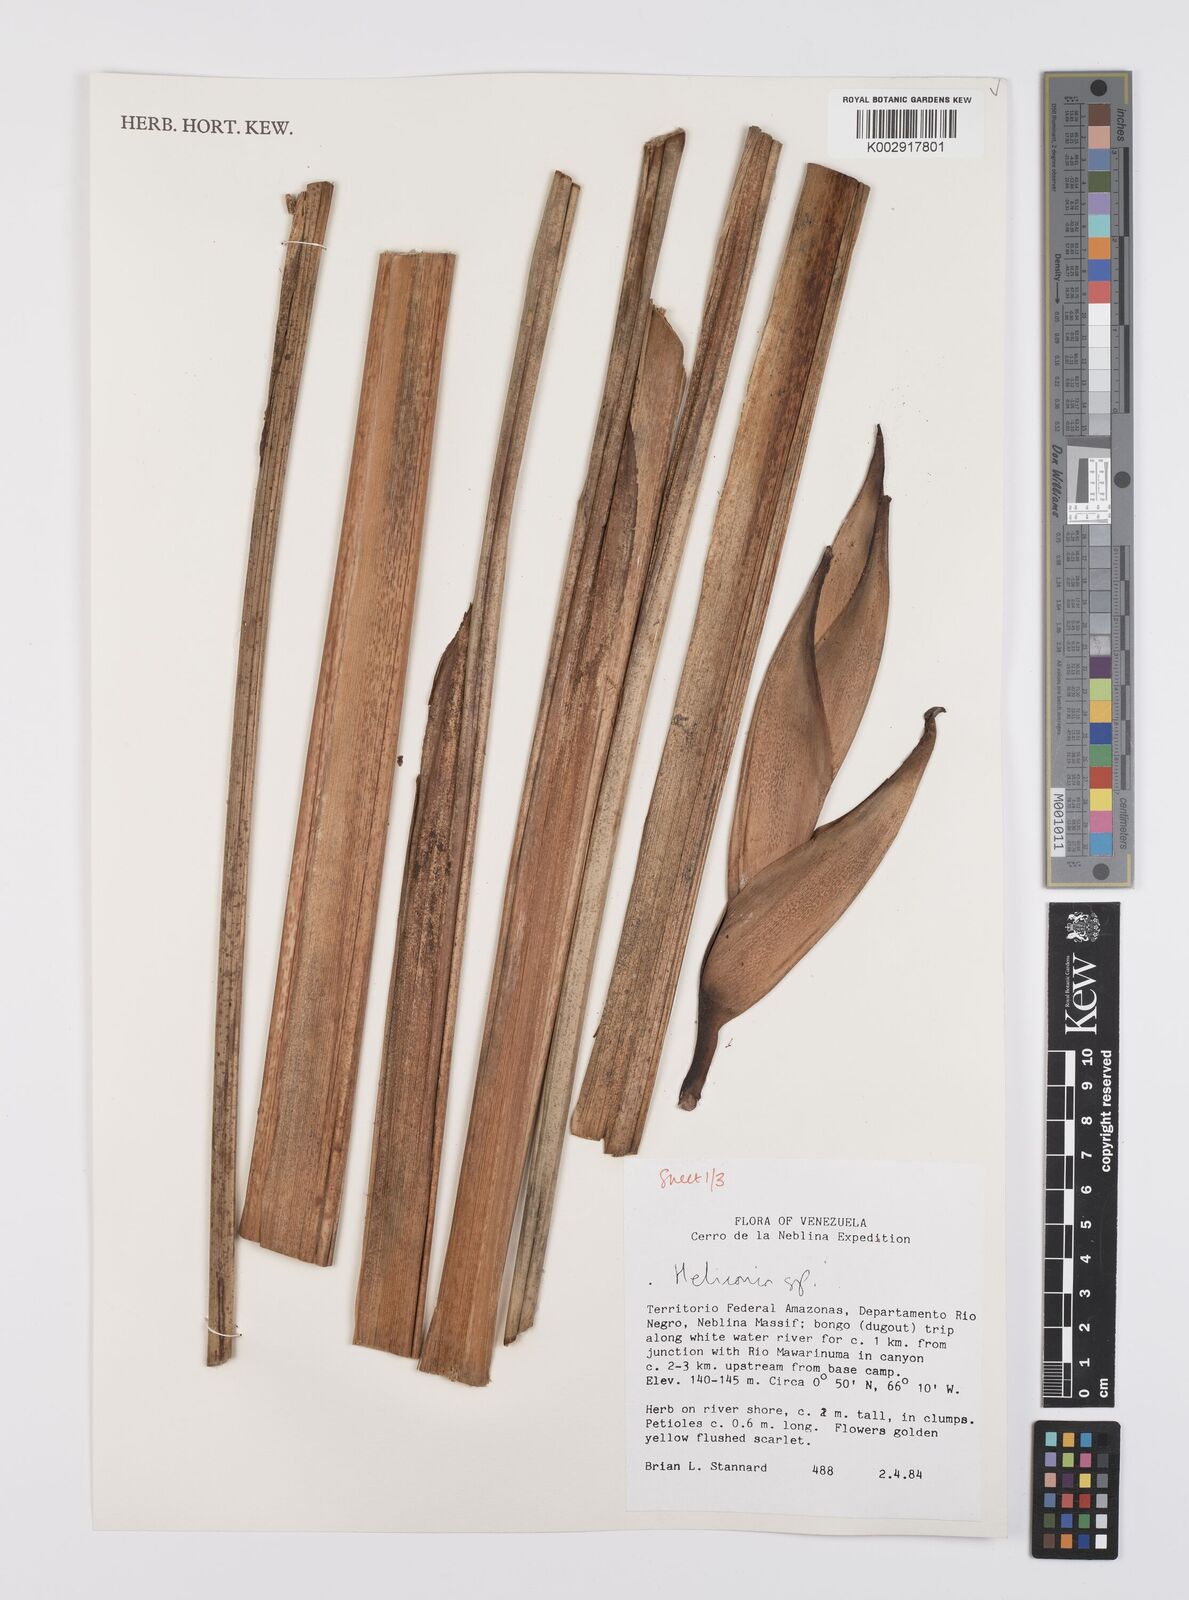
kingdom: Plantae
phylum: Tracheophyta
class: Liliopsida
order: Zingiberales
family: Heliconiaceae
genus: Heliconia
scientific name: Heliconia
